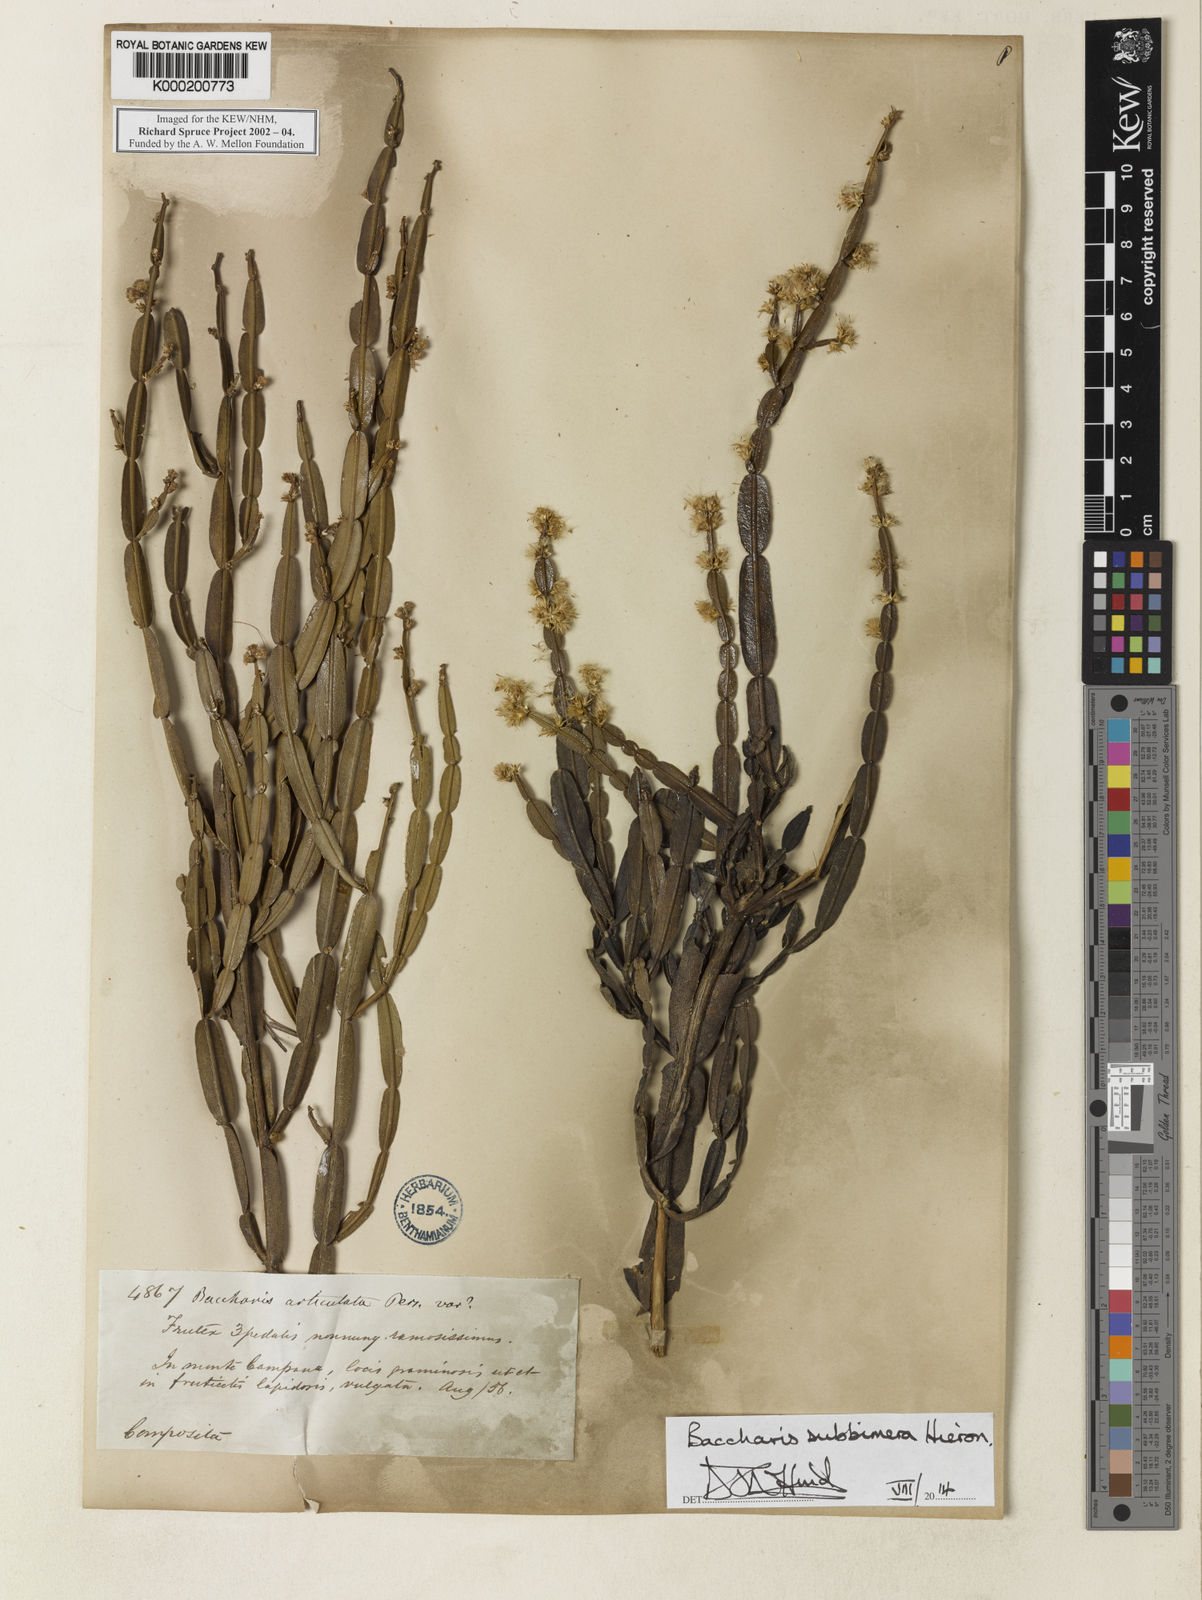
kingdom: Plantae
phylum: Tracheophyta
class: Magnoliopsida
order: Asterales
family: Asteraceae
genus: Baccharis
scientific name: Baccharis subbimera
